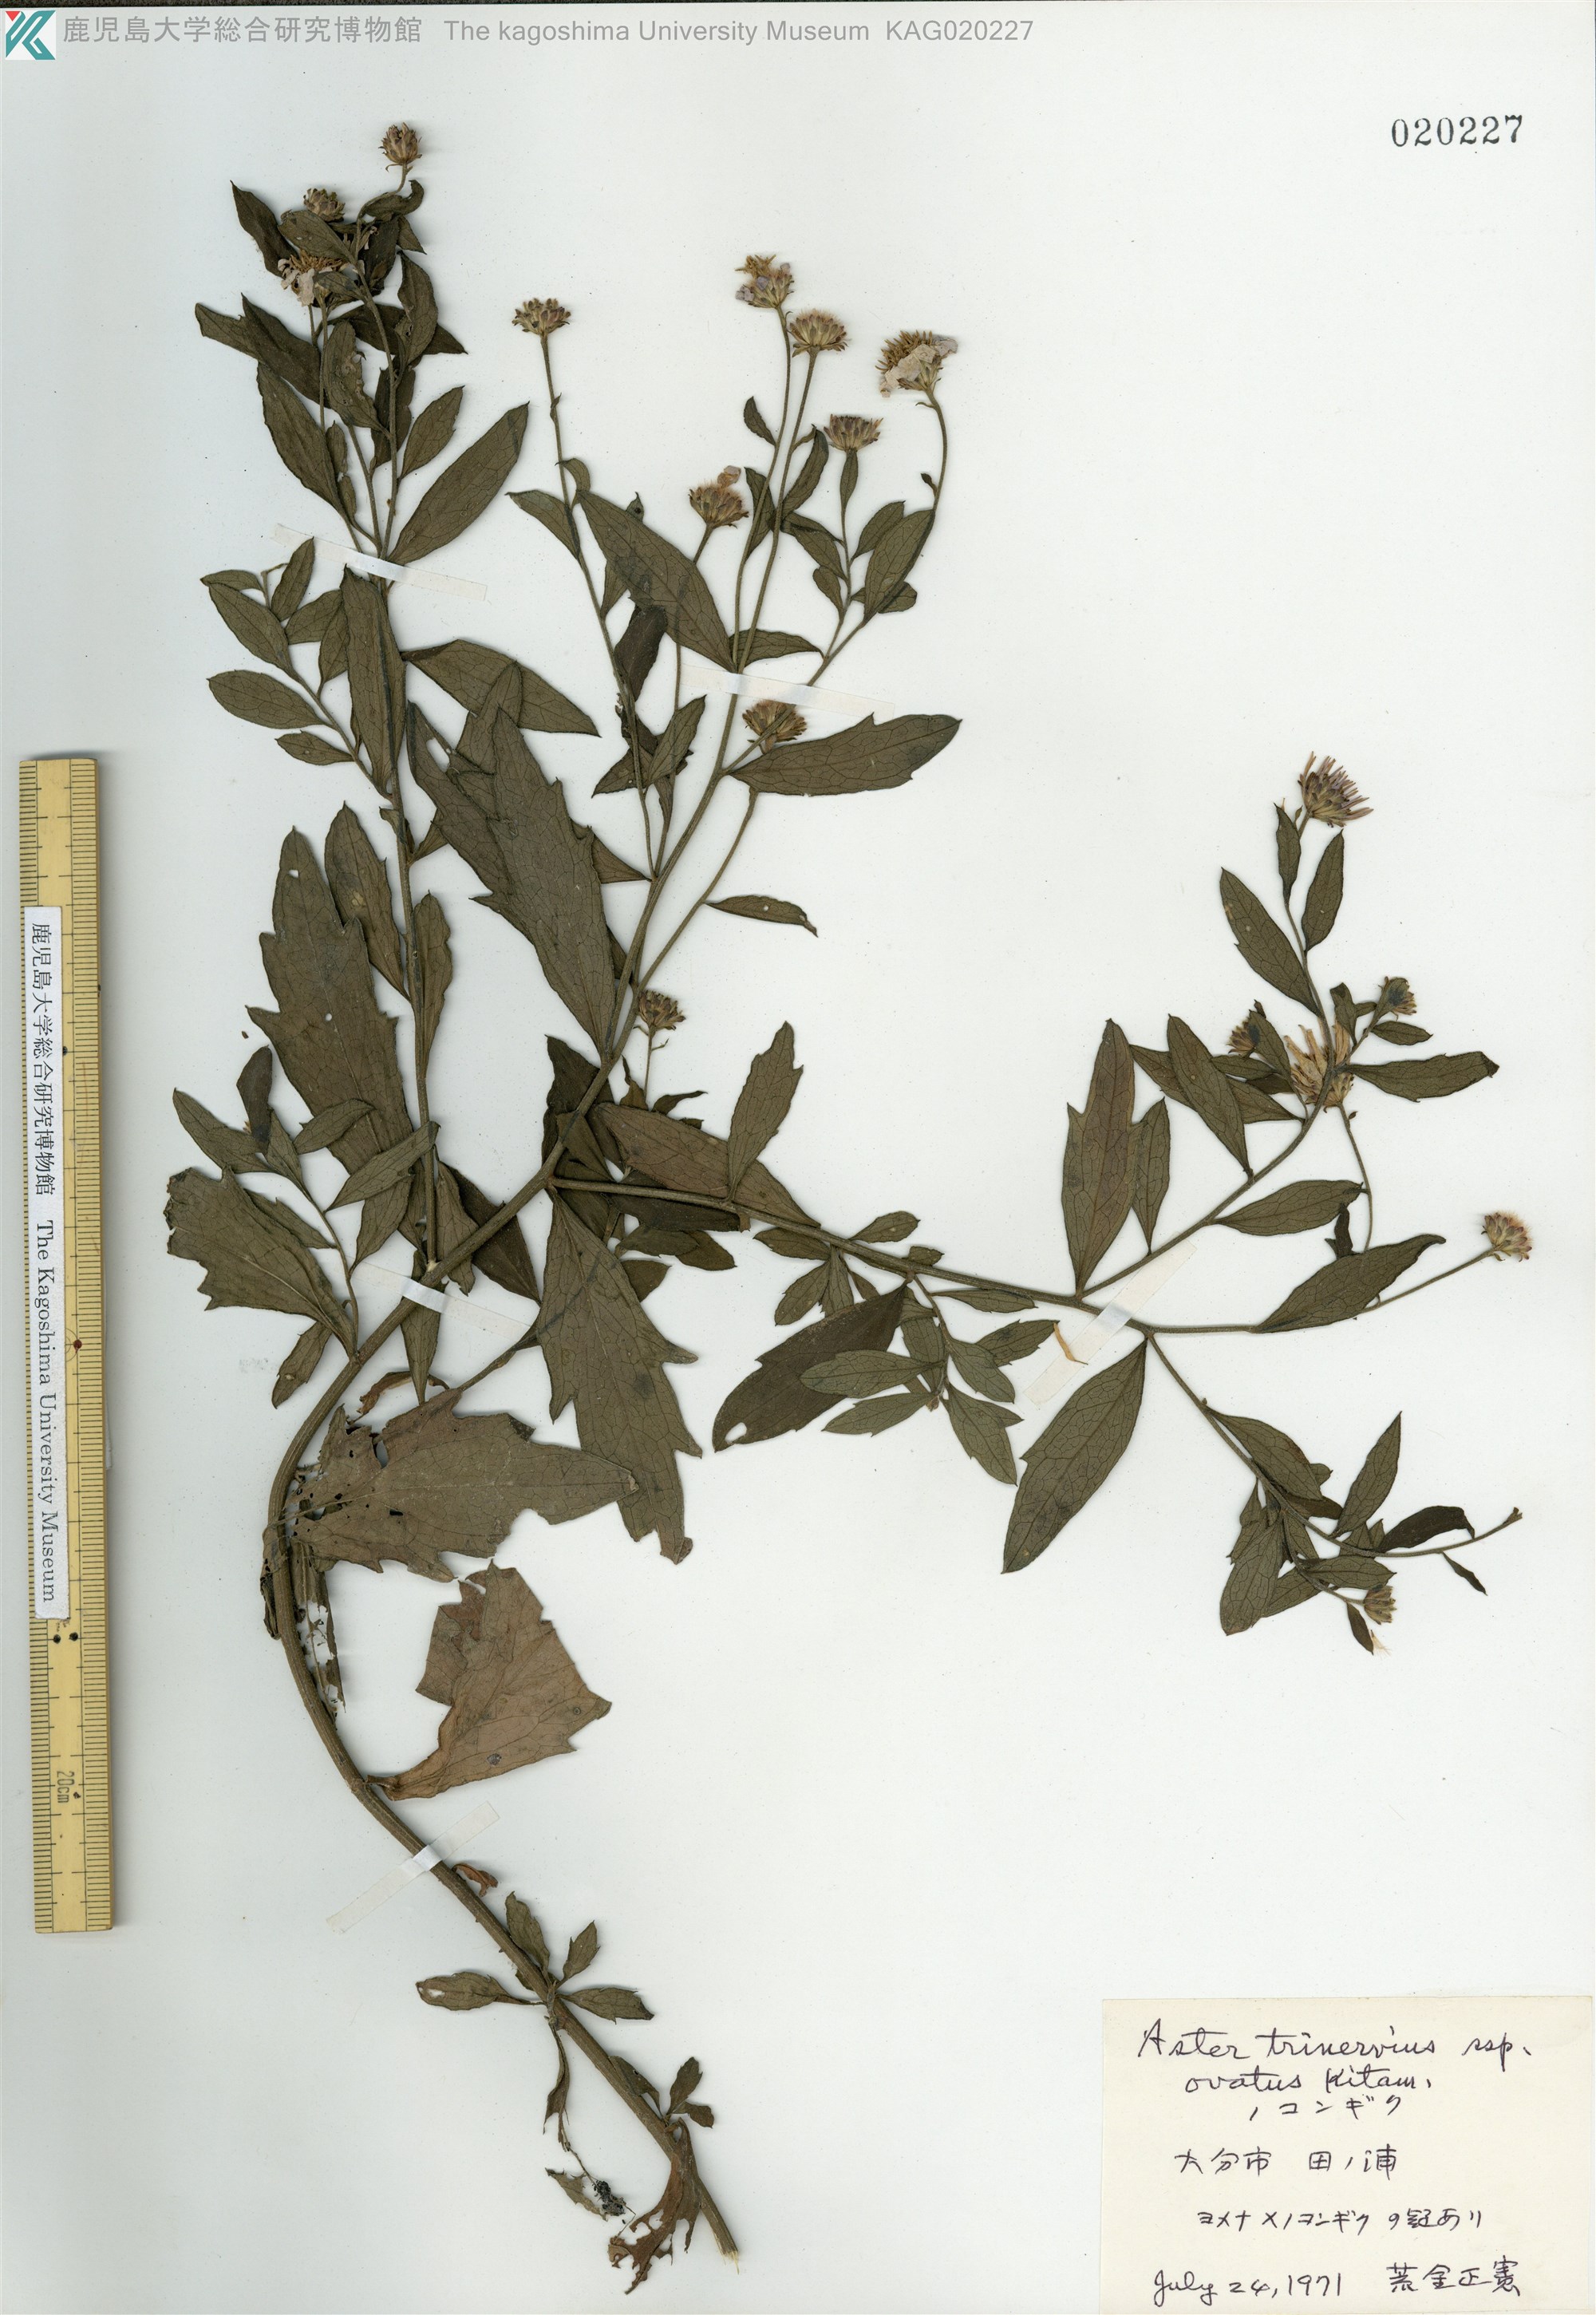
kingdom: Plantae
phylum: Tracheophyta
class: Magnoliopsida
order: Asterales
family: Asteraceae
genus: Aster
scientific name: Aster microcephalus
